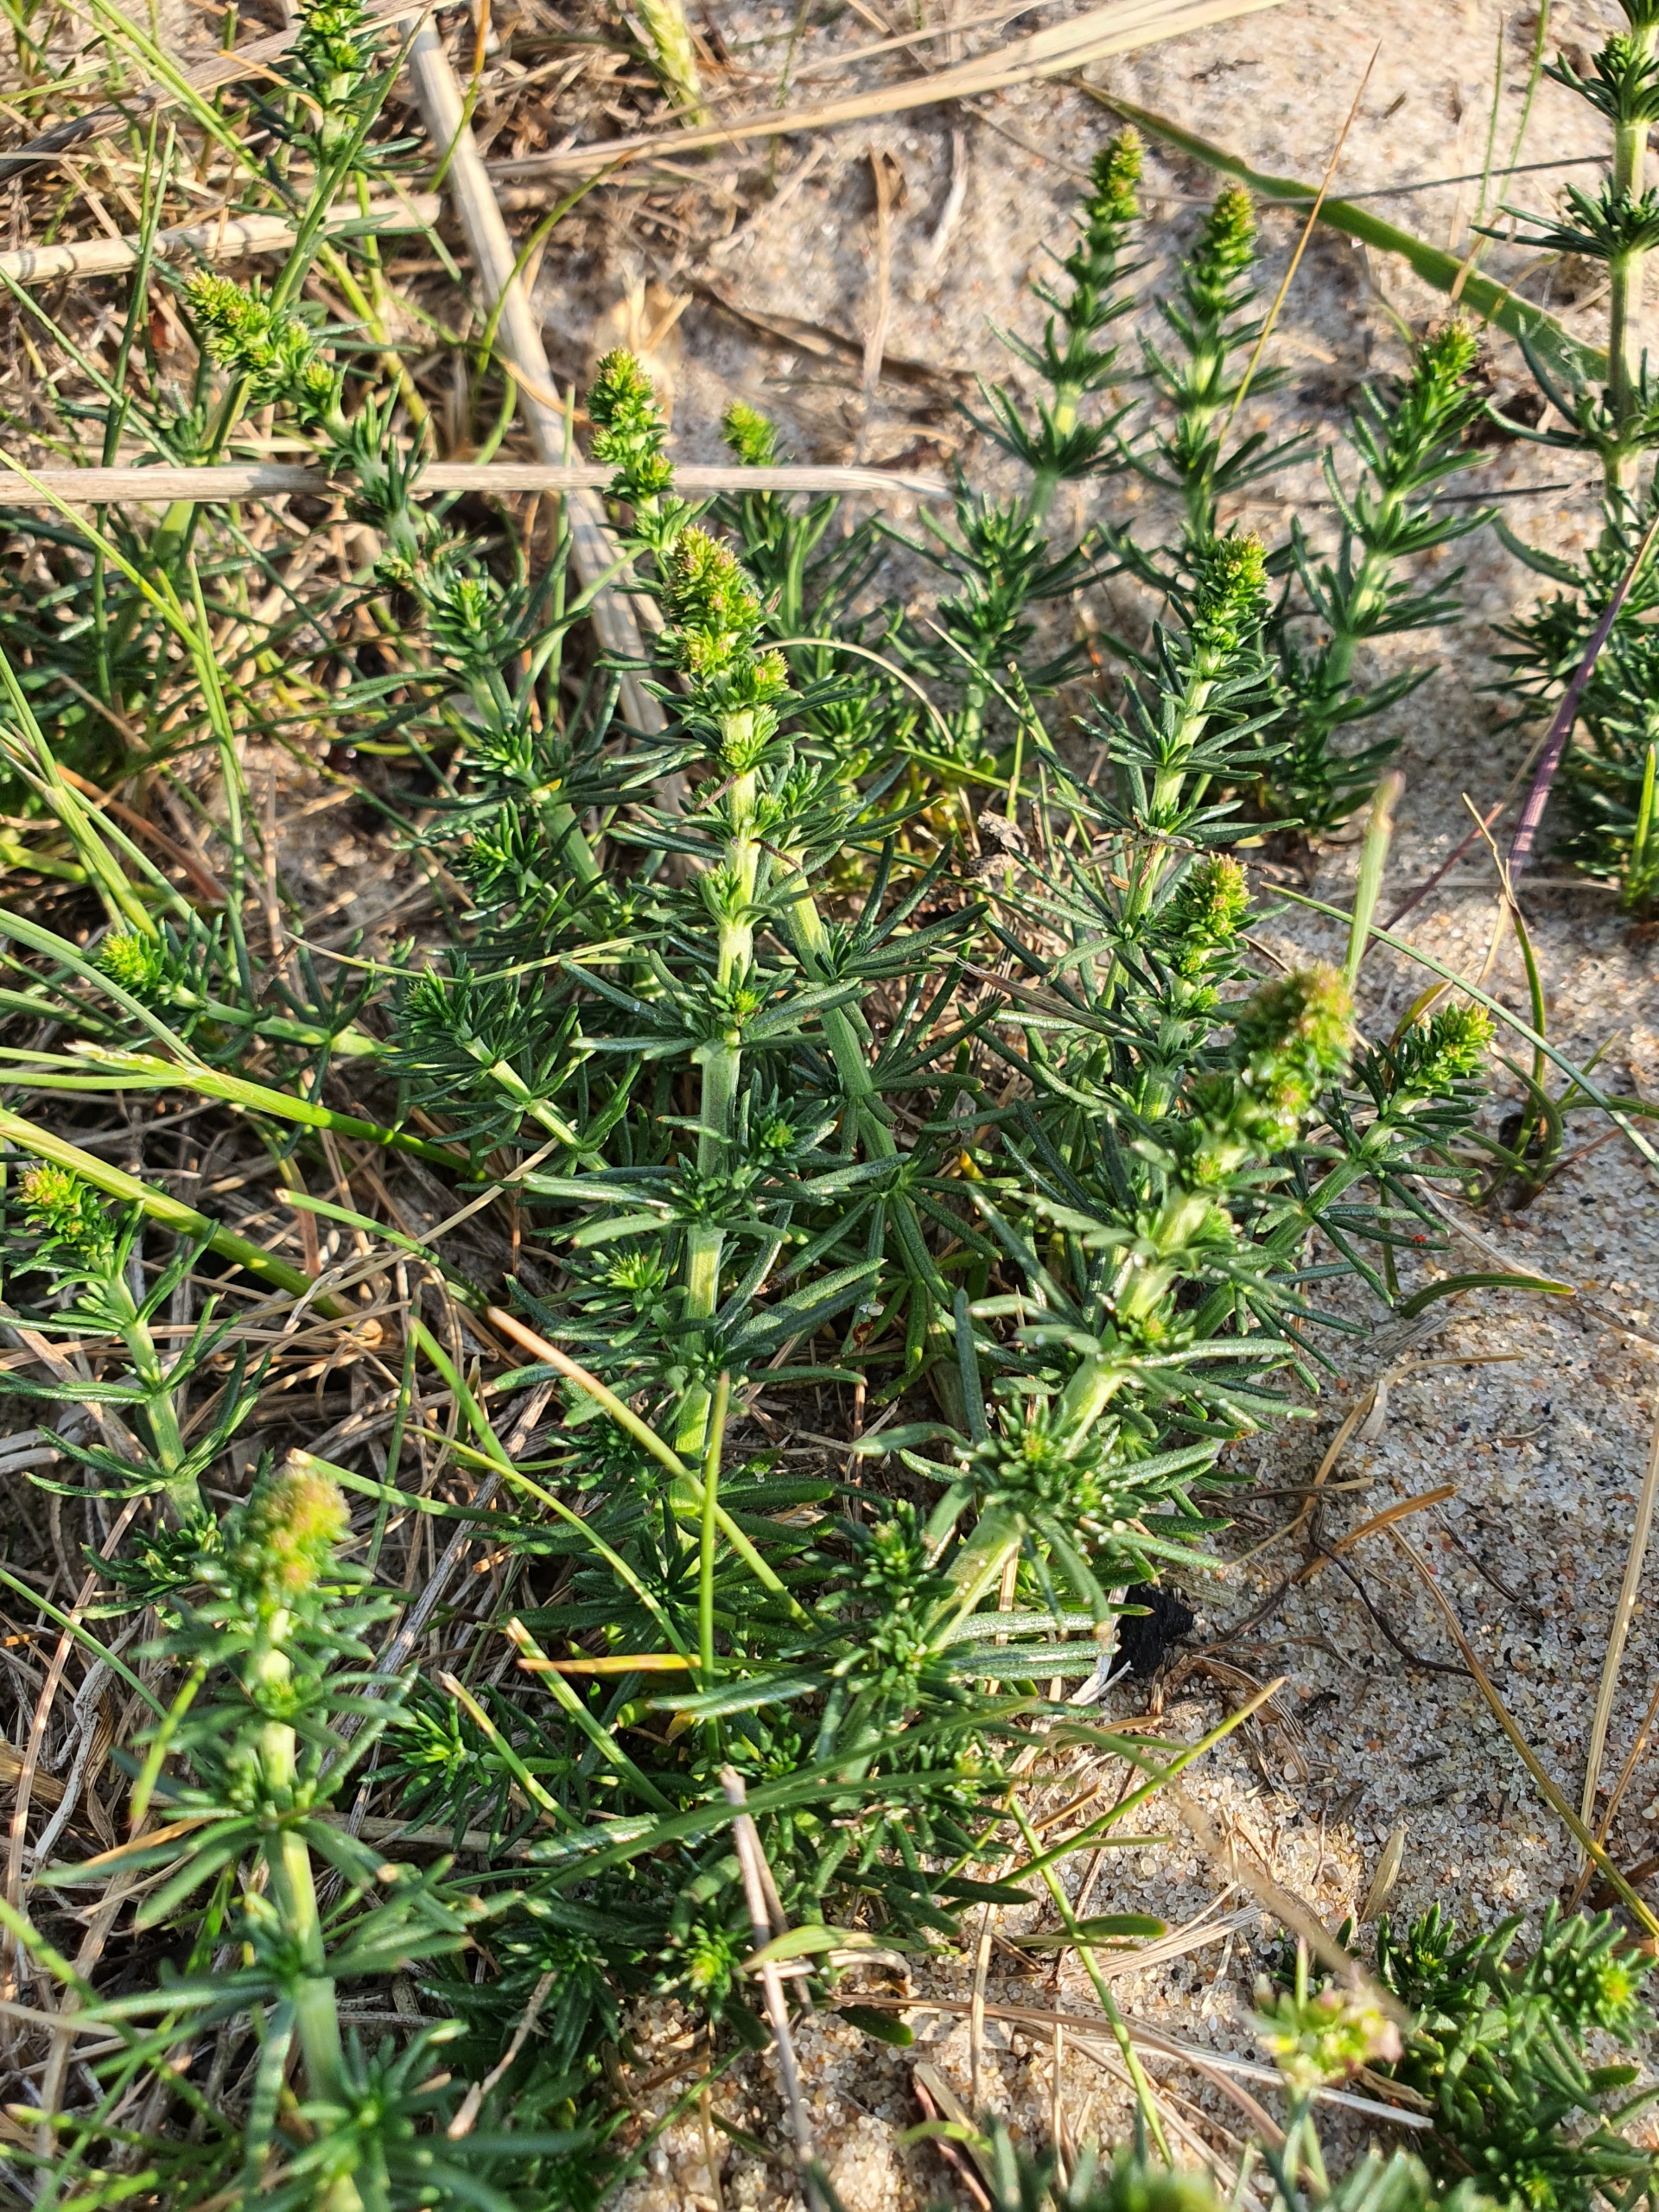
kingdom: Plantae
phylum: Tracheophyta
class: Magnoliopsida
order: Gentianales
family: Rubiaceae
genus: Galium
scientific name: Galium verum
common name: Gul snerre
